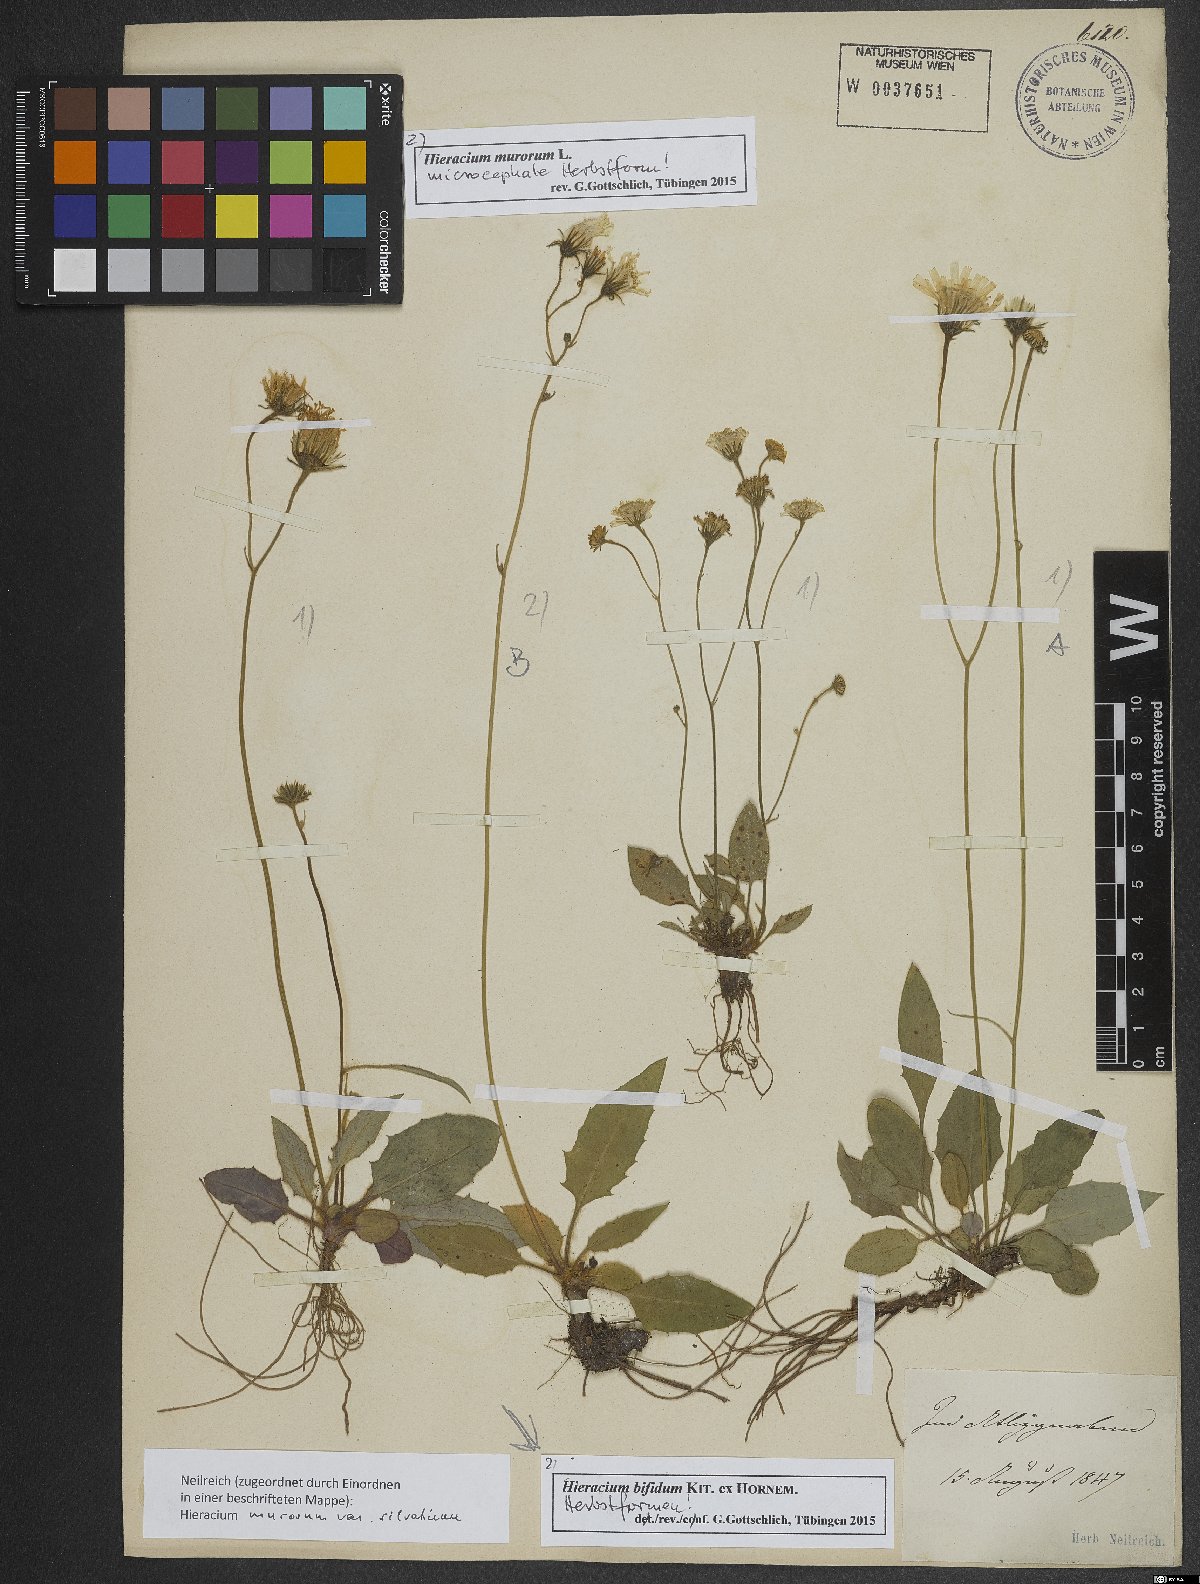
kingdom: Plantae
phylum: Tracheophyta
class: Magnoliopsida
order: Asterales
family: Asteraceae
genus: Hieracium
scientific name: Hieracium murorum
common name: Wall hawkweed
